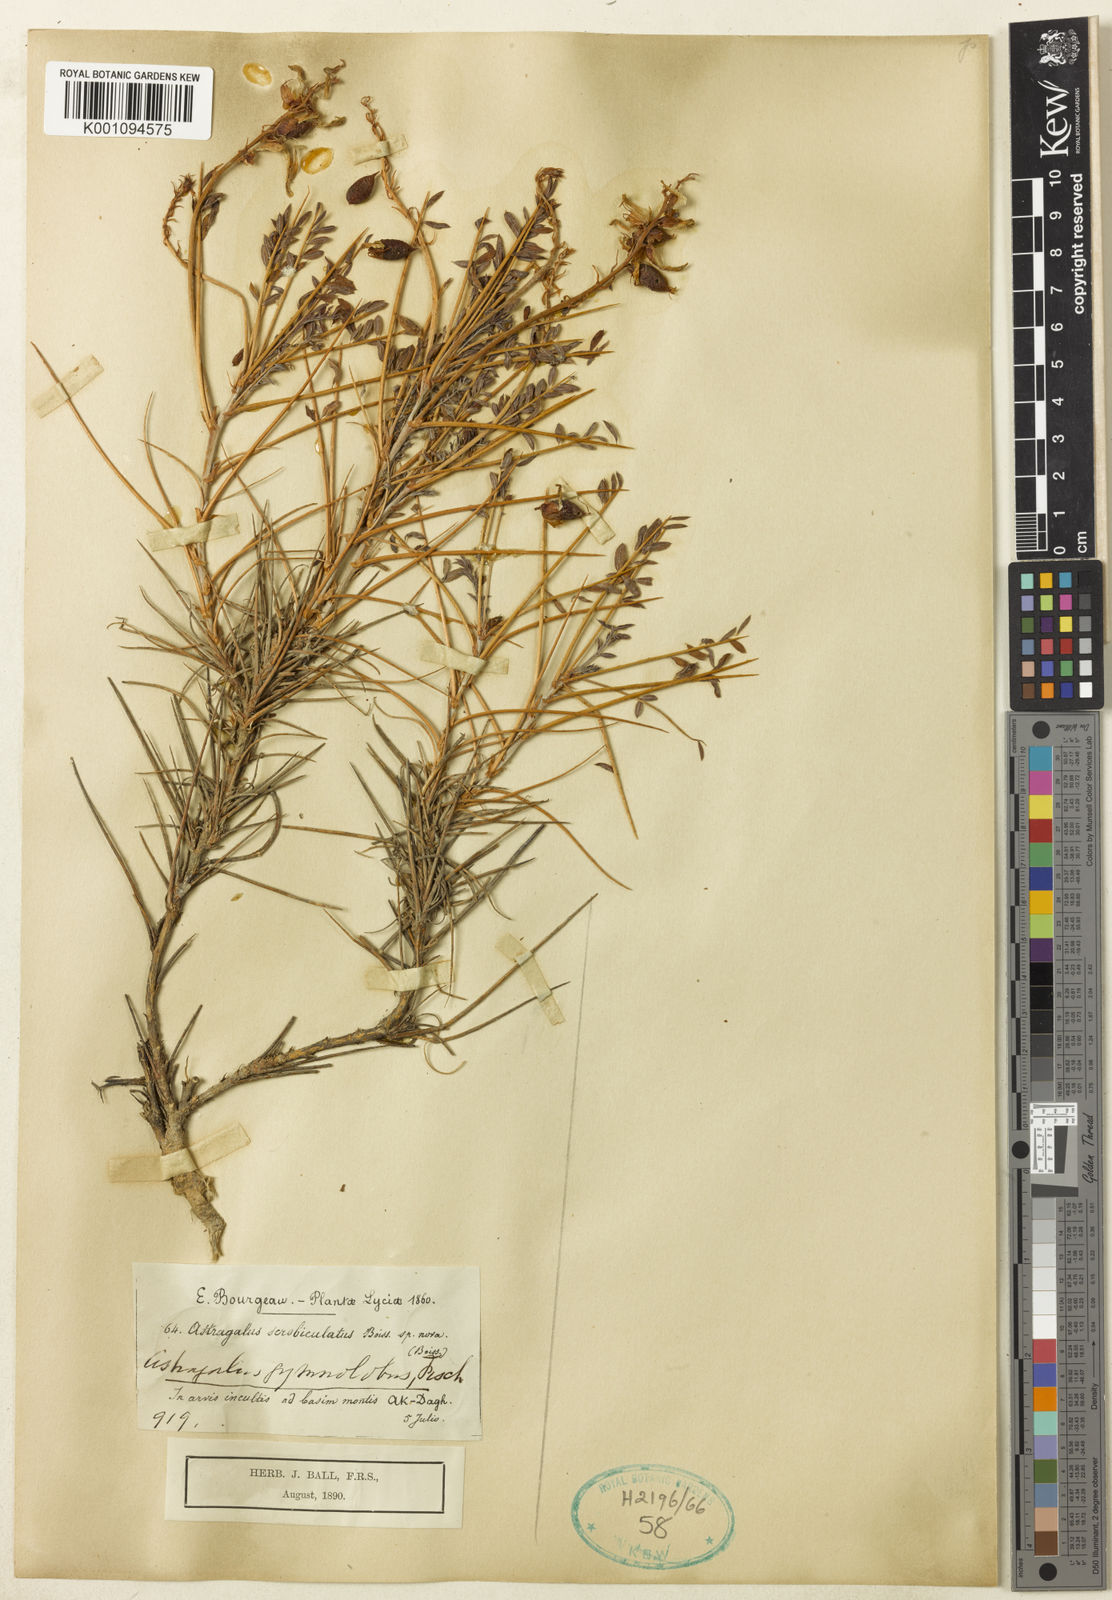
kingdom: Plantae
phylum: Tracheophyta
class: Magnoliopsida
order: Fabales
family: Fabaceae
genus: Astragalus
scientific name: Astragalus
